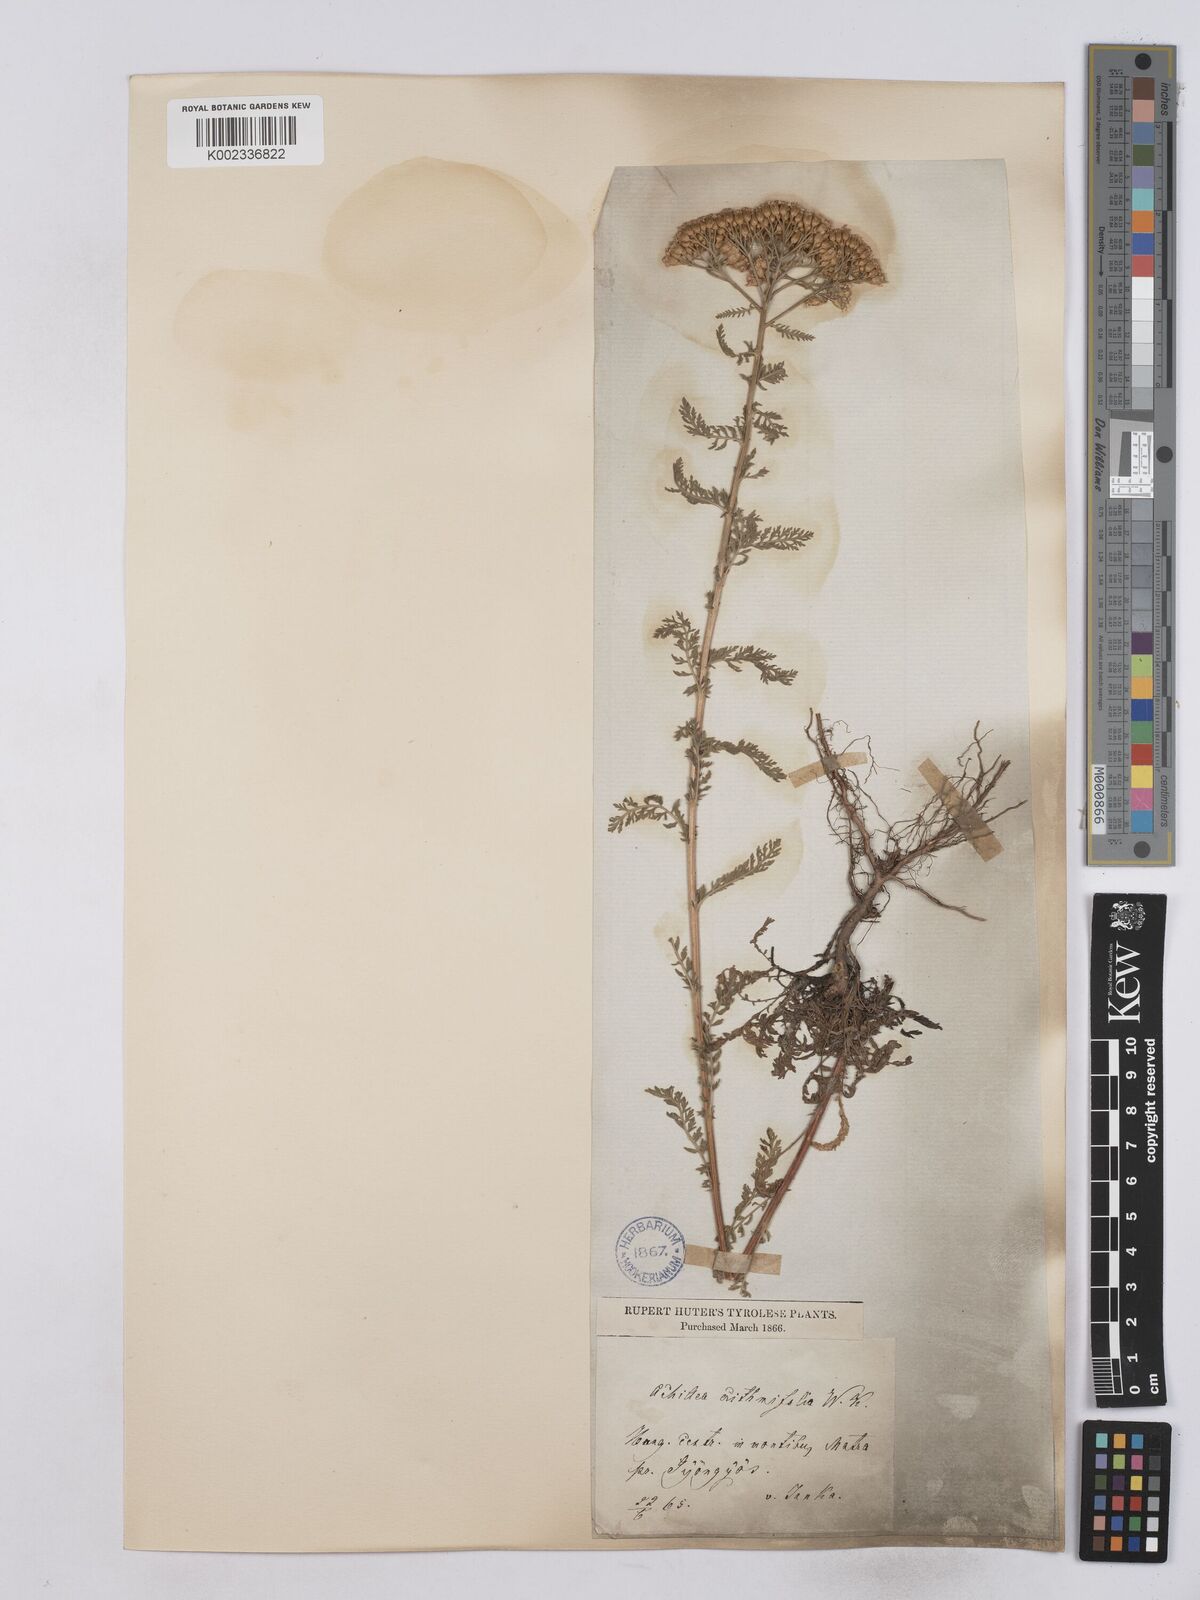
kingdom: Plantae
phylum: Tracheophyta
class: Magnoliopsida
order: Asterales
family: Asteraceae
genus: Achillea
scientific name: Achillea crithmifolia
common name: Yarrow
